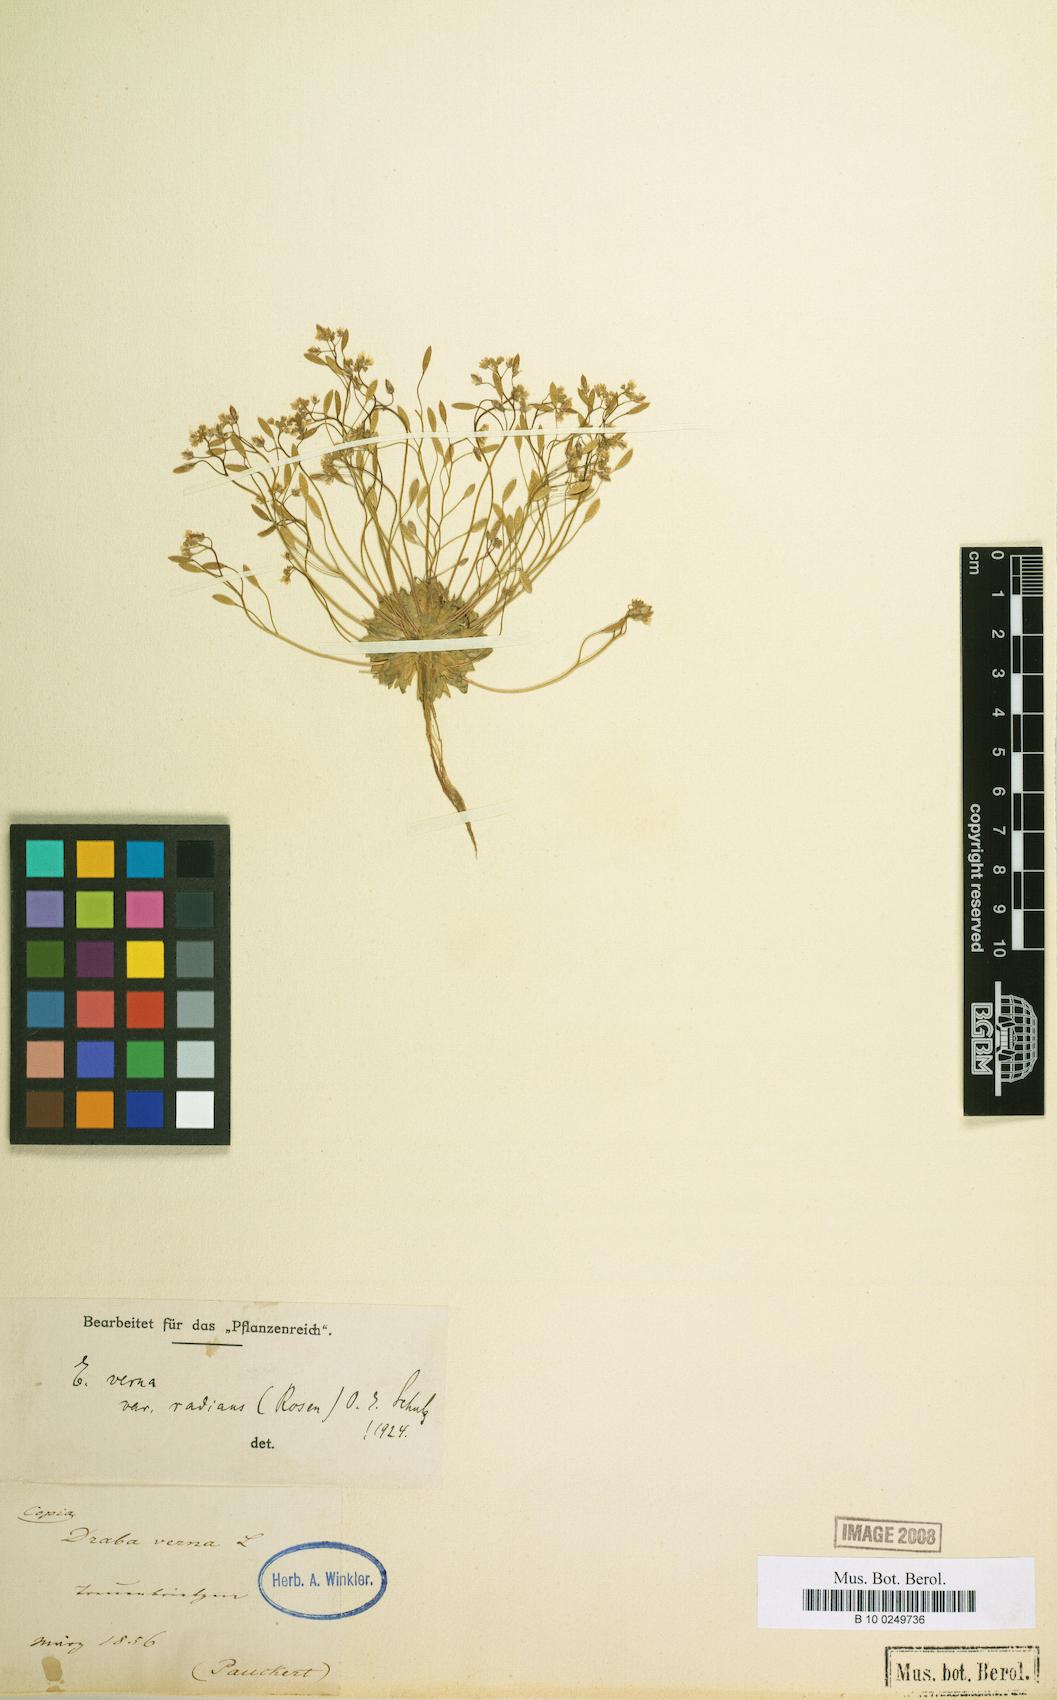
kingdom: Plantae
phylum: Tracheophyta
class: Magnoliopsida
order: Brassicales
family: Brassicaceae
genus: Draba
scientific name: Draba verna
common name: Spring draba
